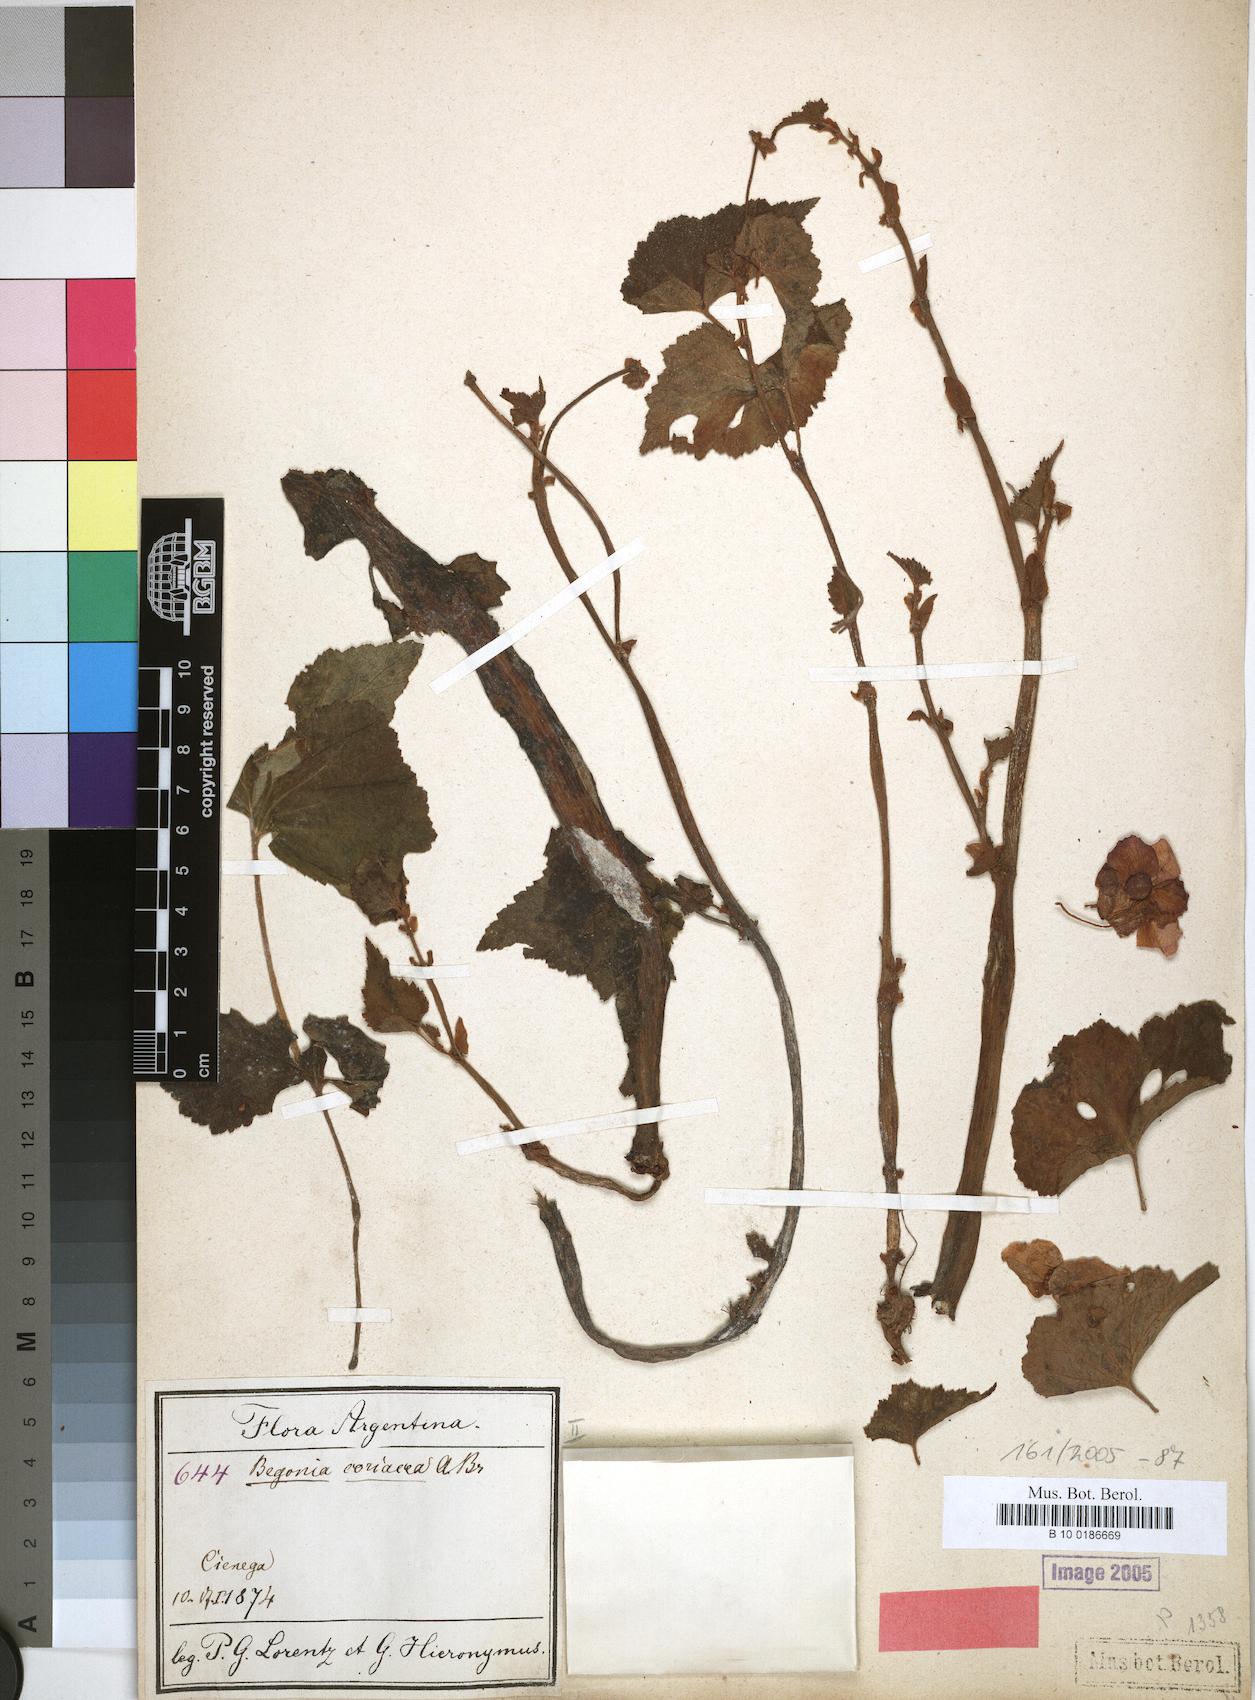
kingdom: Plantae
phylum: Tracheophyta
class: Magnoliopsida
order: Cucurbitales
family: Begoniaceae
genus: Begonia
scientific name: Begonia micranthera
